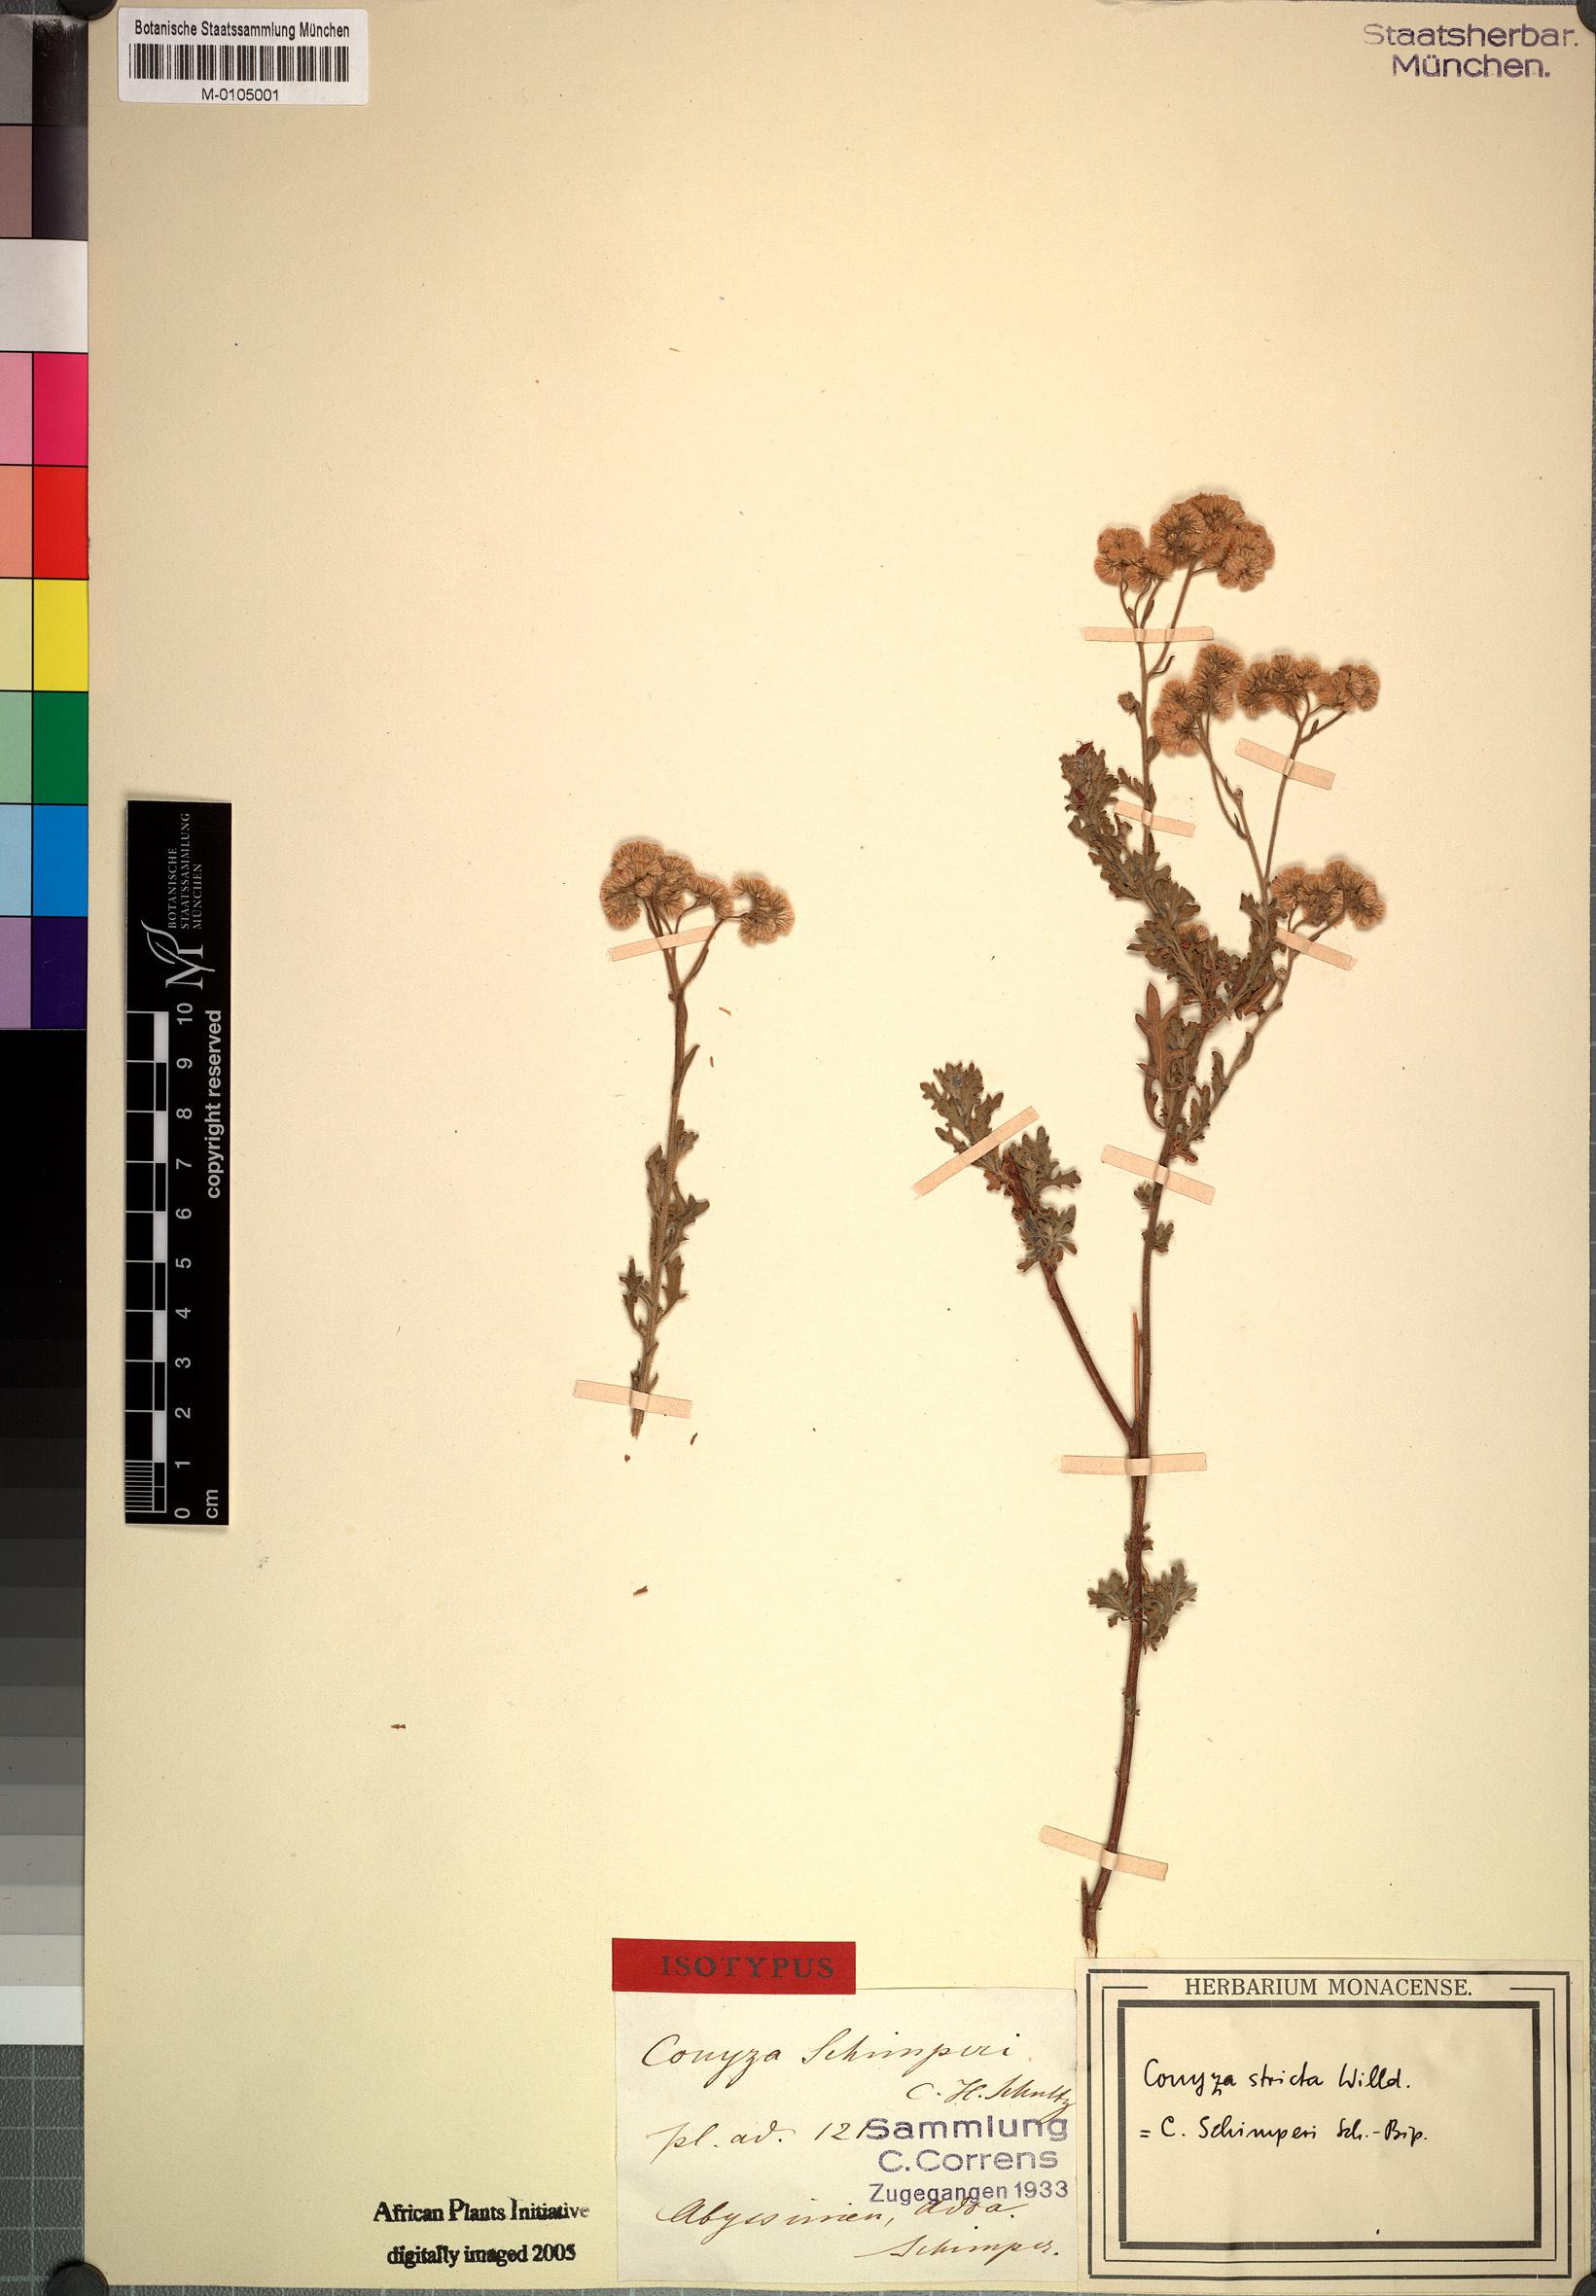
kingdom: Plantae
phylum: Tracheophyta
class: Magnoliopsida
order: Asterales
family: Asteraceae
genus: Conyza
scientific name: Conyza schimperi
